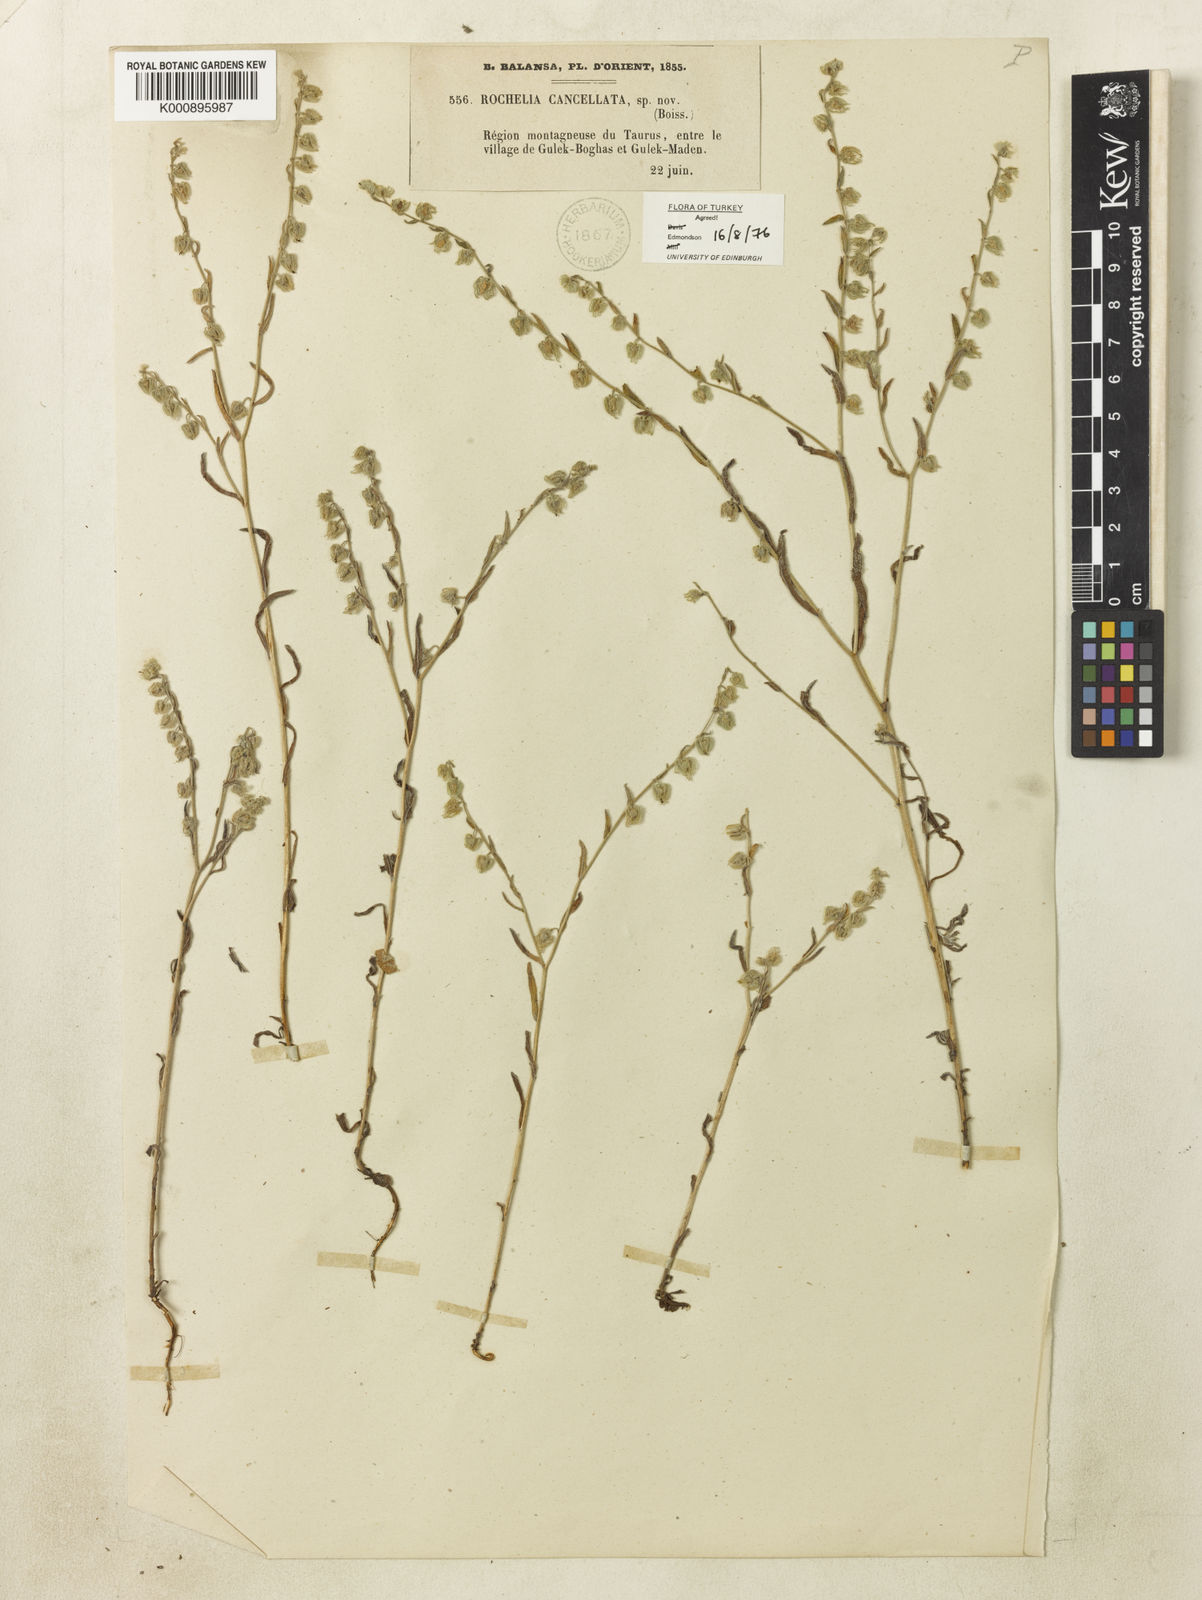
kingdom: Plantae
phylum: Tracheophyta
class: Magnoliopsida
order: Boraginales
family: Boraginaceae
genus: Rochelia
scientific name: Rochelia cancellata
